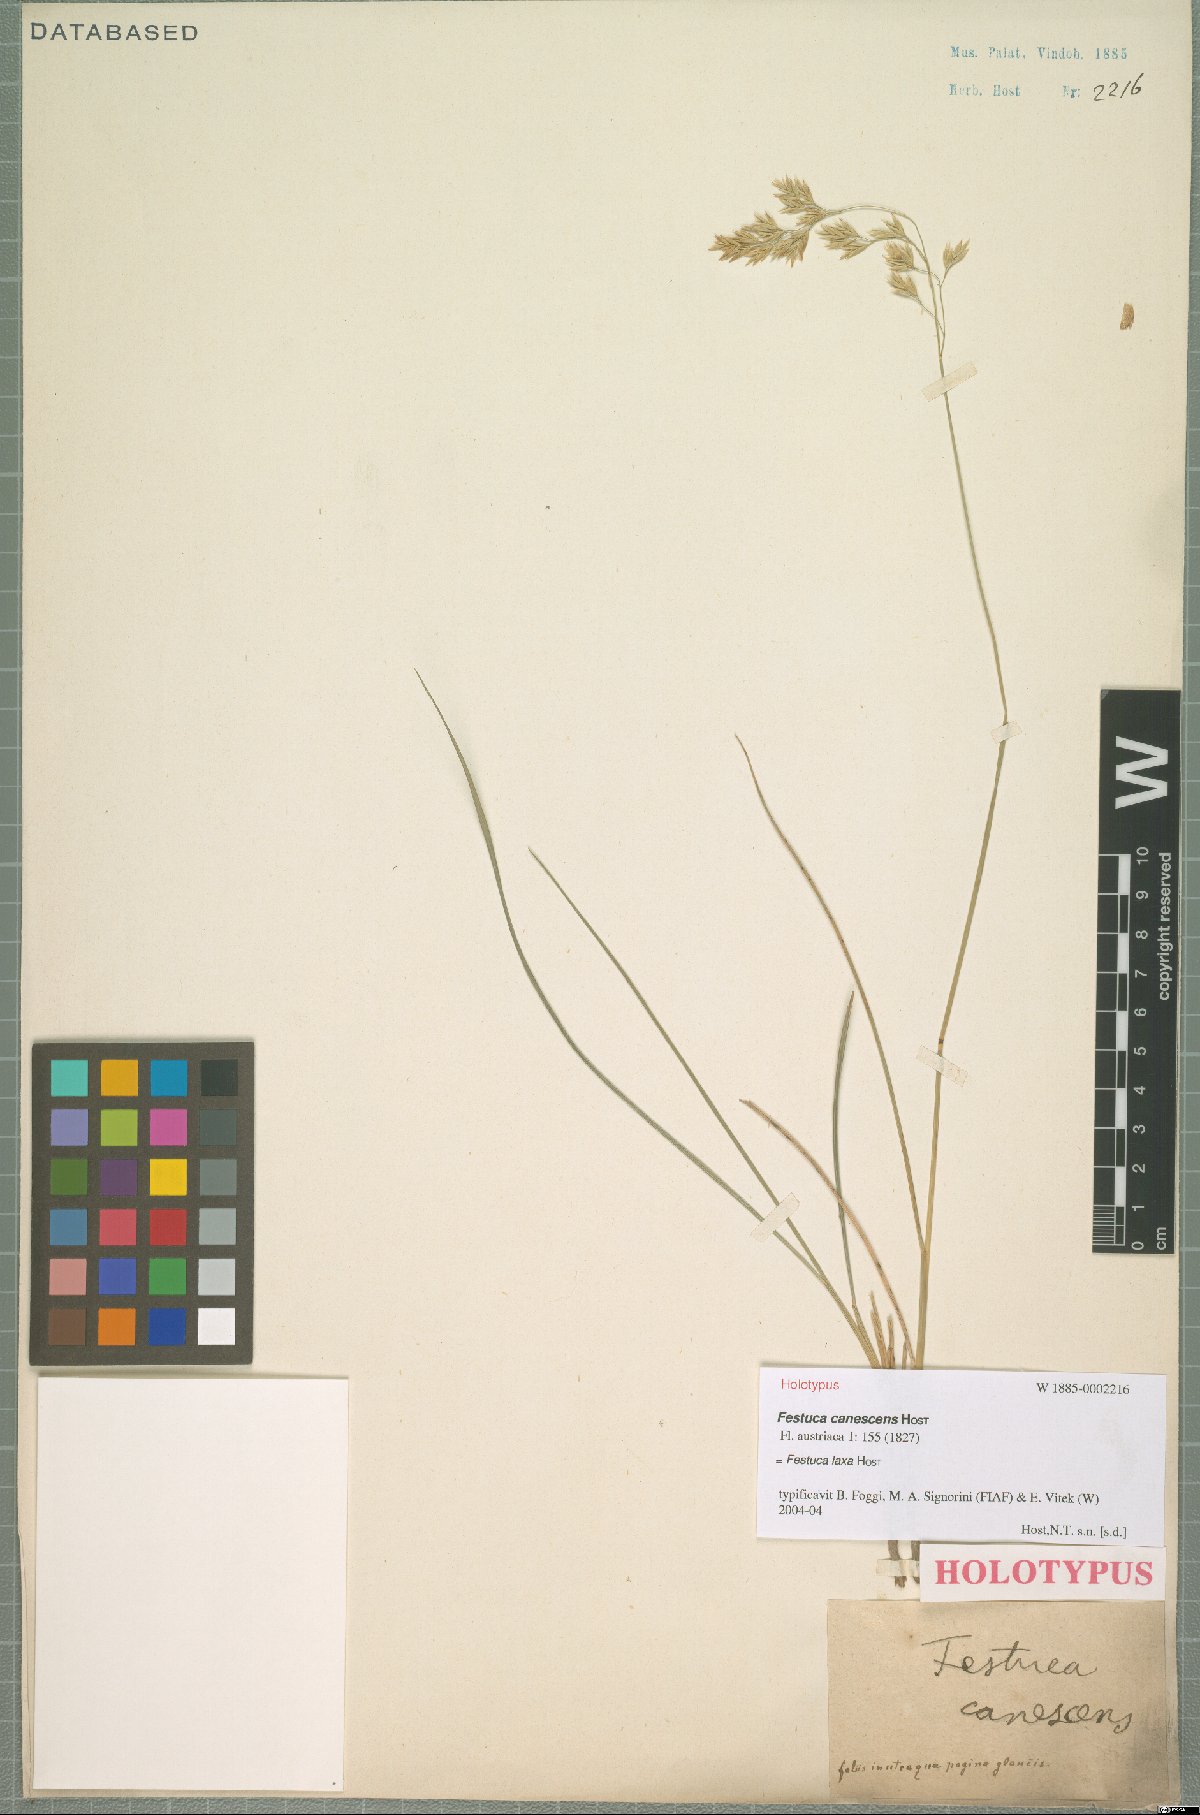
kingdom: Plantae
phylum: Tracheophyta
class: Liliopsida
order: Poales
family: Poaceae
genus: Festuca
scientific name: Festuca laxa
